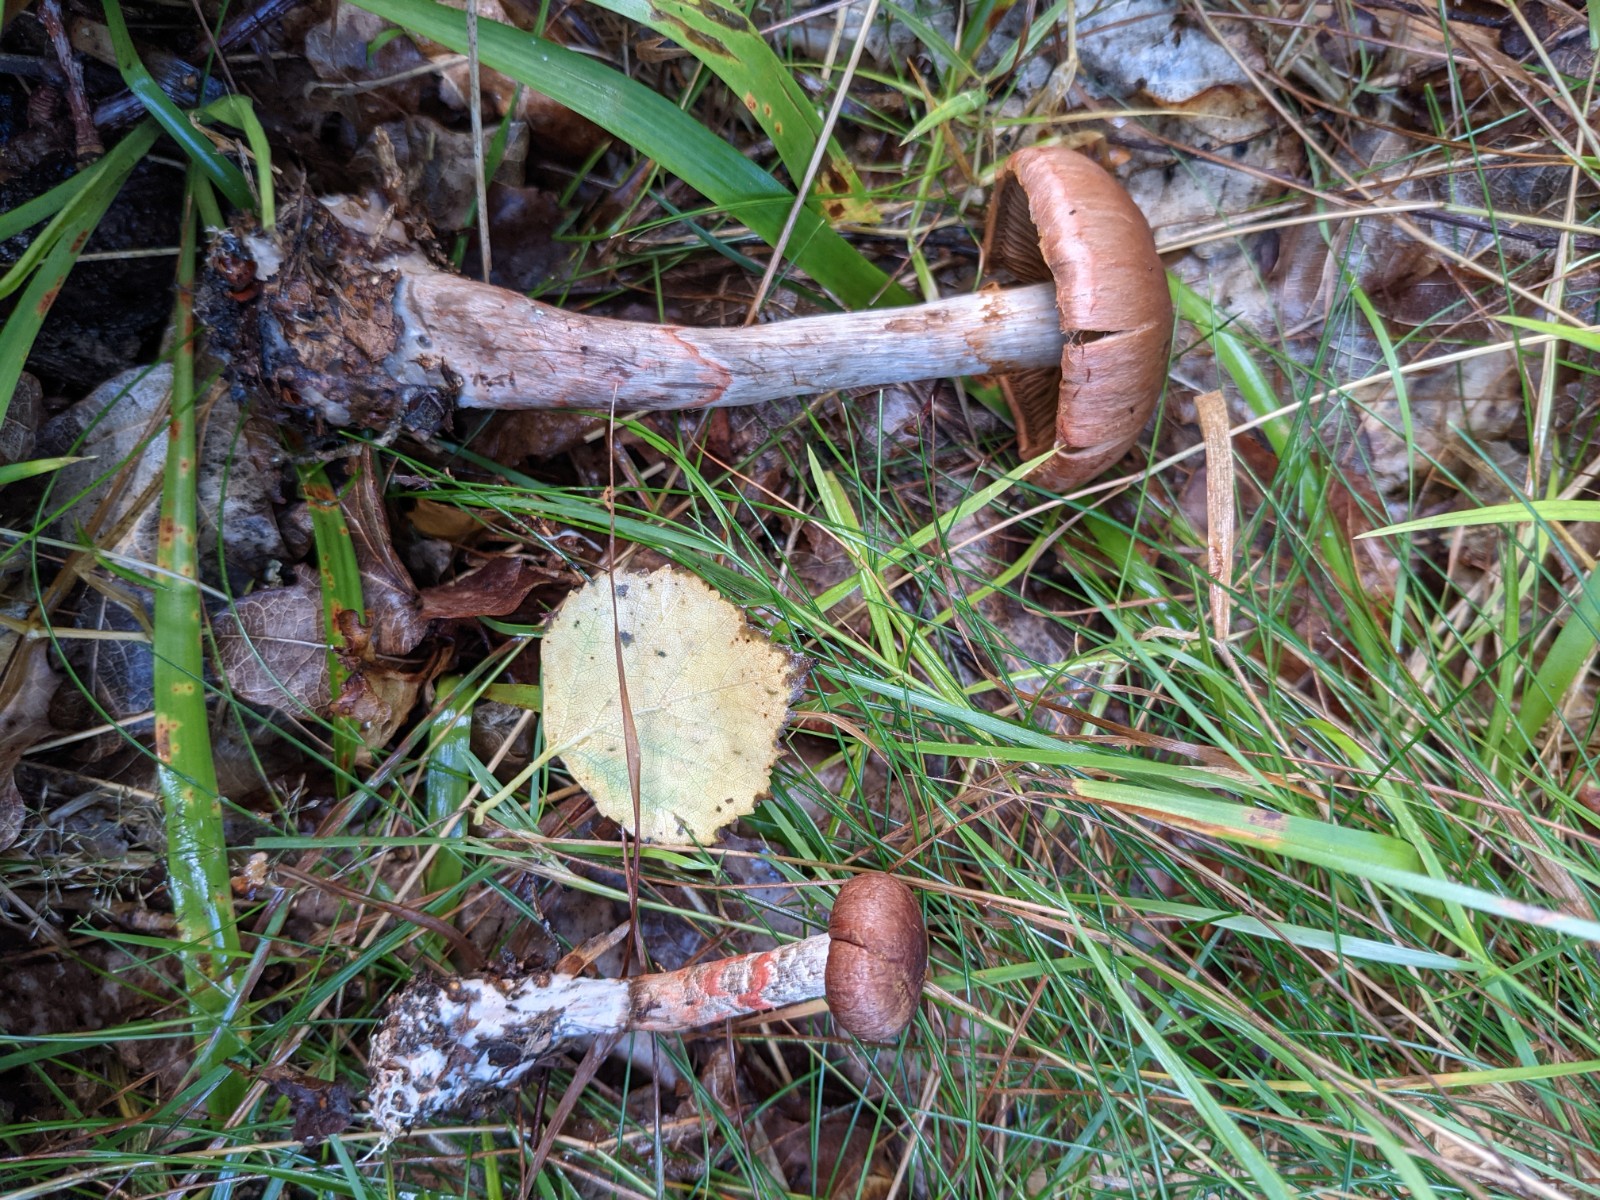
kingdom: Fungi
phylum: Basidiomycota
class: Agaricomycetes
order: Agaricales
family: Cortinariaceae
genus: Cortinarius
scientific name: Cortinarius armillatus
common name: cinnoberbæltet slørhat
